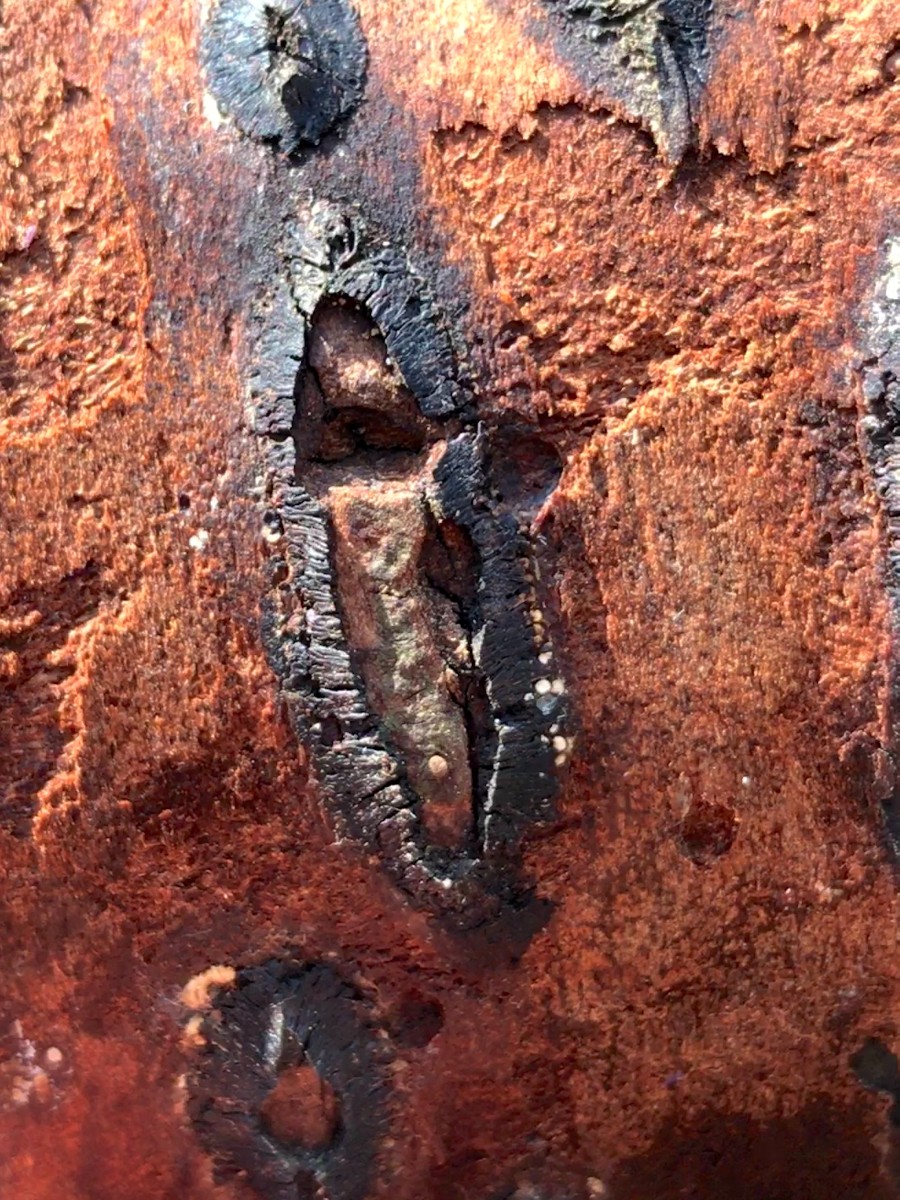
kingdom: Fungi
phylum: Ascomycota
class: Sordariomycetes
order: Calosphaeriales
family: Calosphaeriaceae
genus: Calosphaeria
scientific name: Calosphaeria pulchella
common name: smuk slyngkerne
